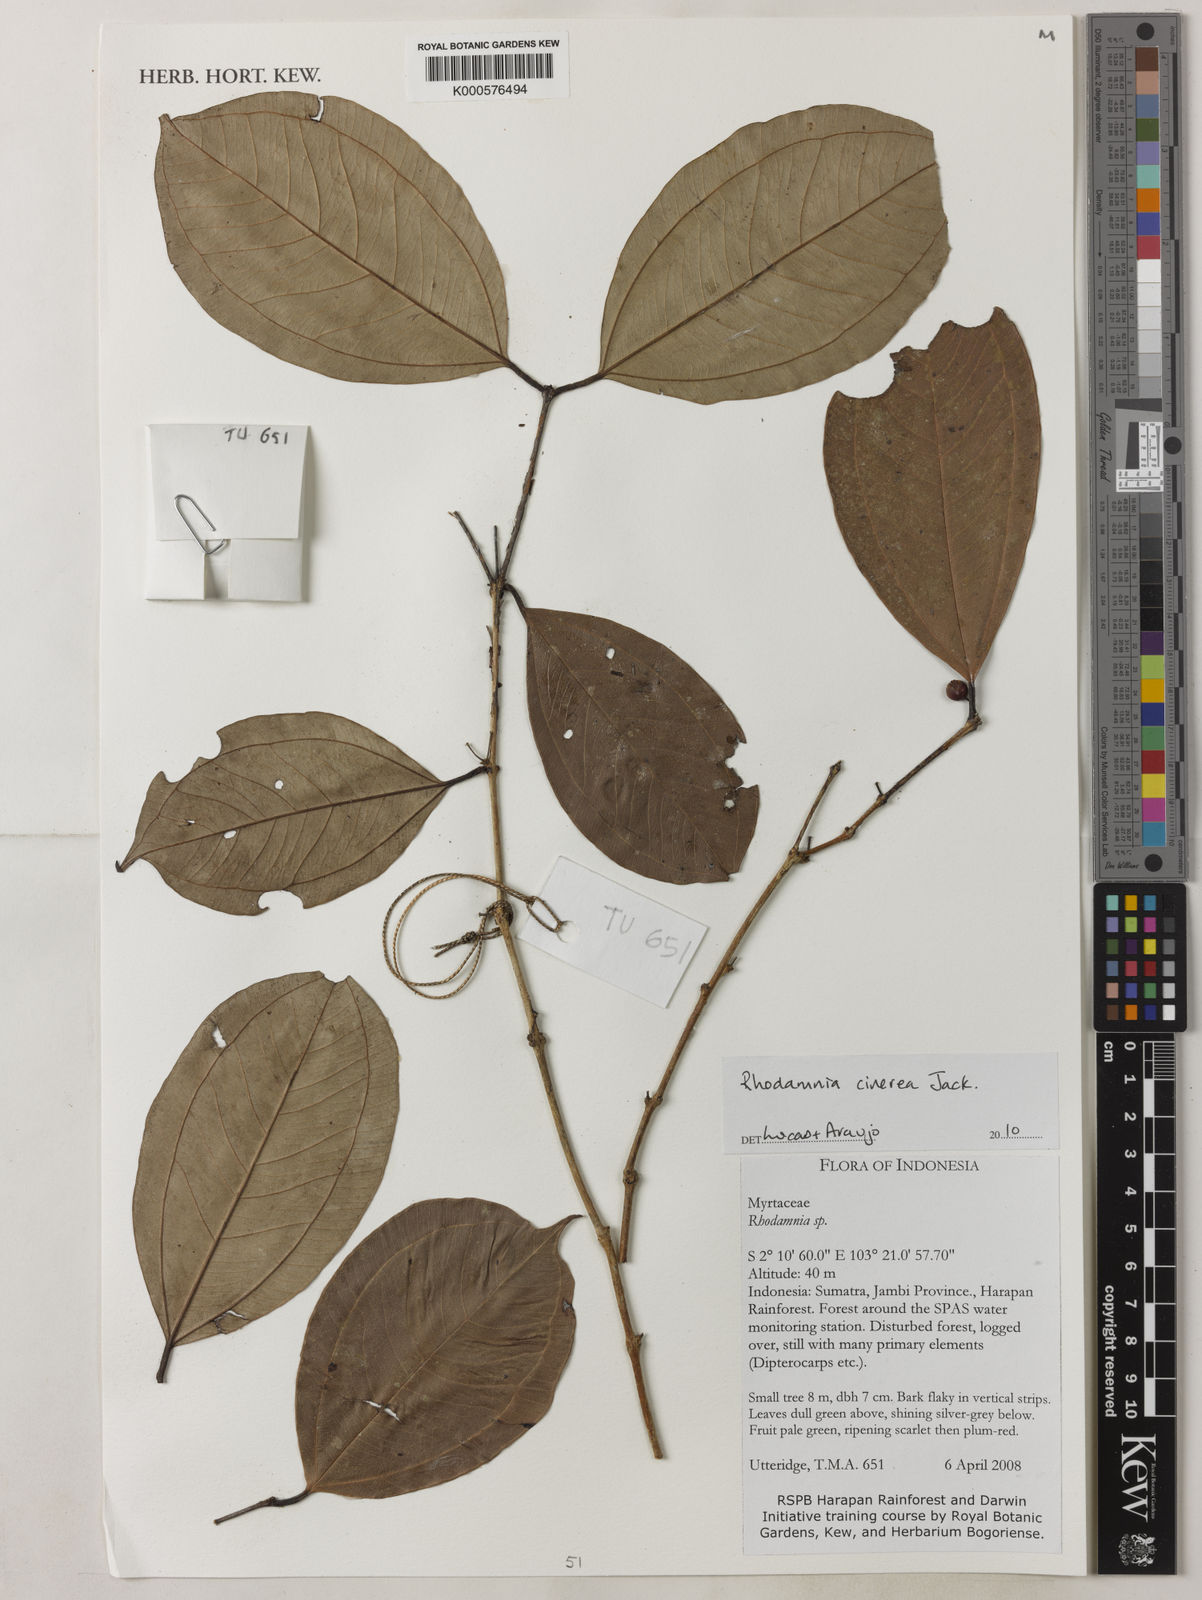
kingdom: Plantae
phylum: Tracheophyta
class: Magnoliopsida
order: Myrtales
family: Myrtaceae
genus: Rhodamnia
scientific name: Rhodamnia cinerea
